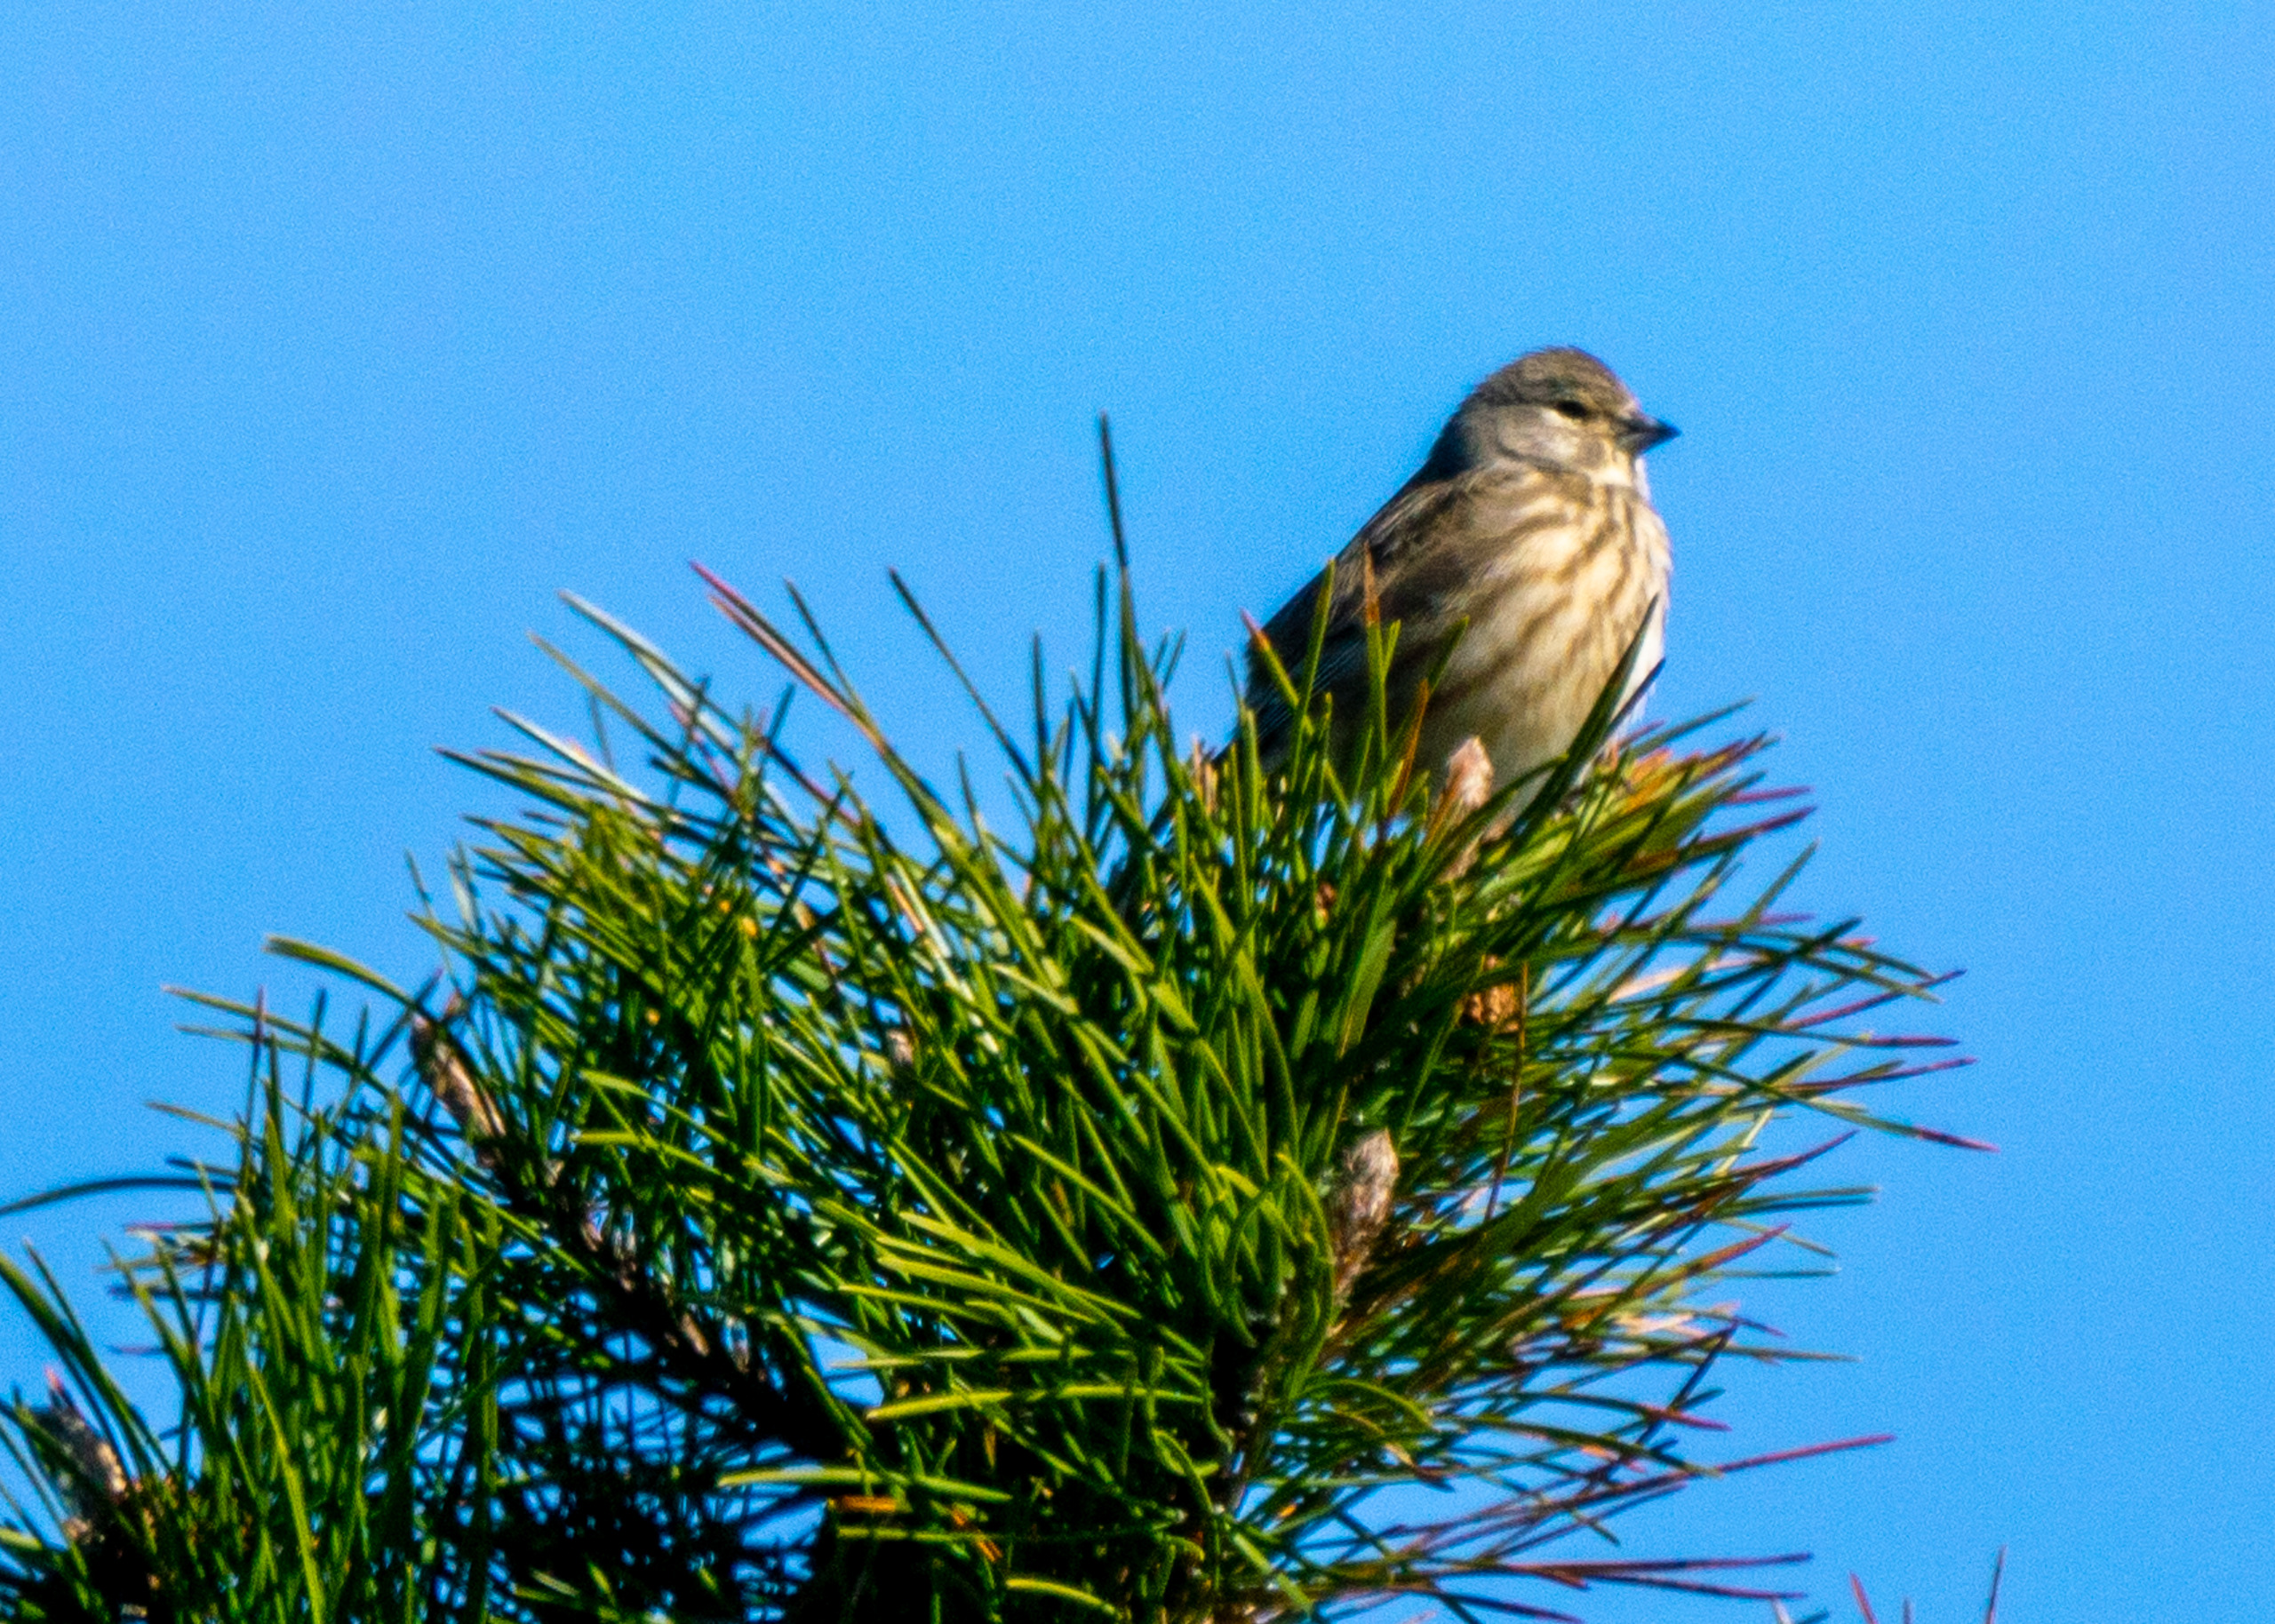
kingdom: Animalia
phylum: Chordata
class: Aves
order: Passeriformes
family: Fringillidae
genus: Linaria
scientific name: Linaria cannabina
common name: Tornirisk
